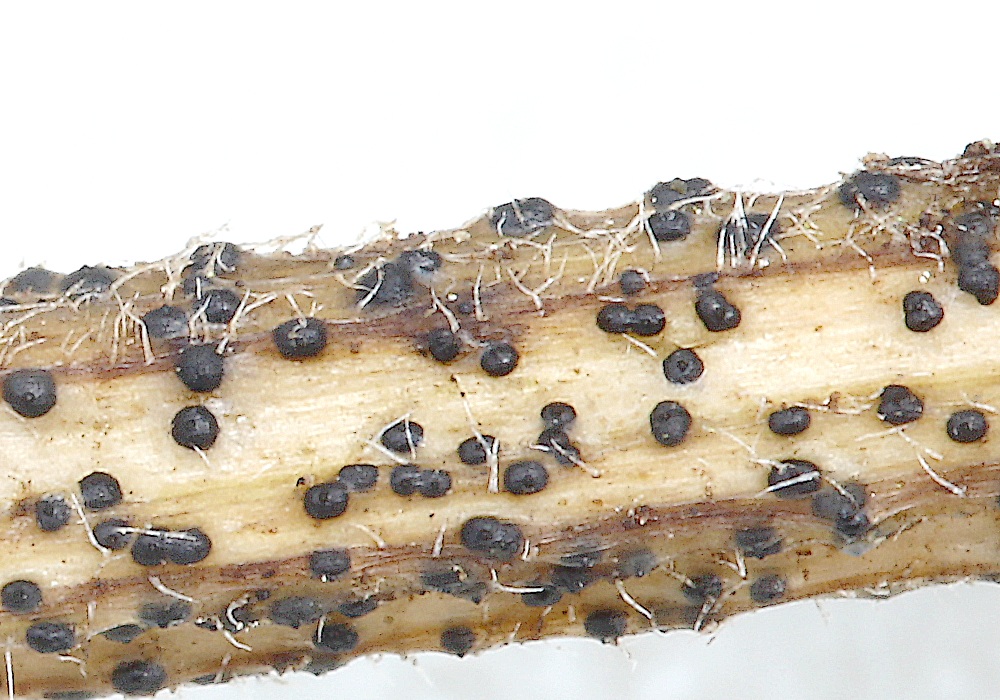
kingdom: Fungi
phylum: Ascomycota
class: Dothideomycetes
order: Pleosporales
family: Didymellaceae
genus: Phoma
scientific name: Phoma
